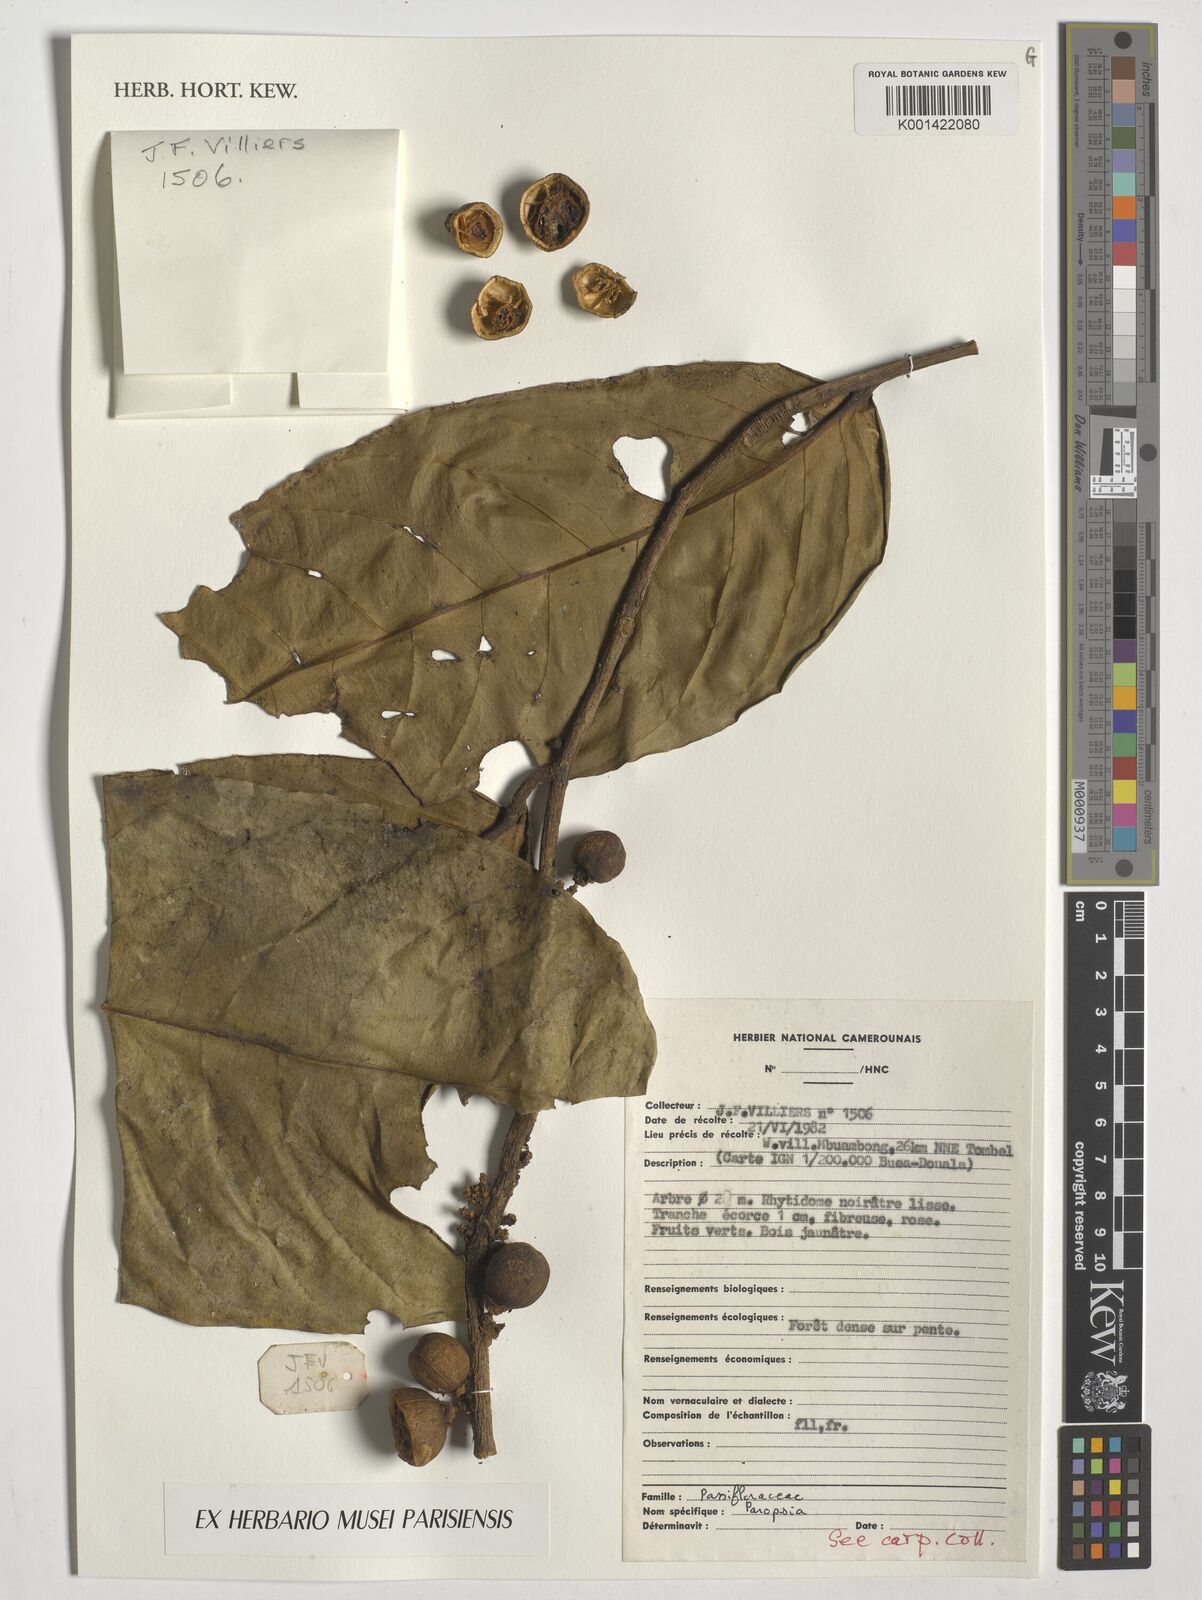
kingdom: Plantae
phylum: Tracheophyta
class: Magnoliopsida
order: Malpighiales
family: Passifloraceae
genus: Paropsia
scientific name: Paropsia
